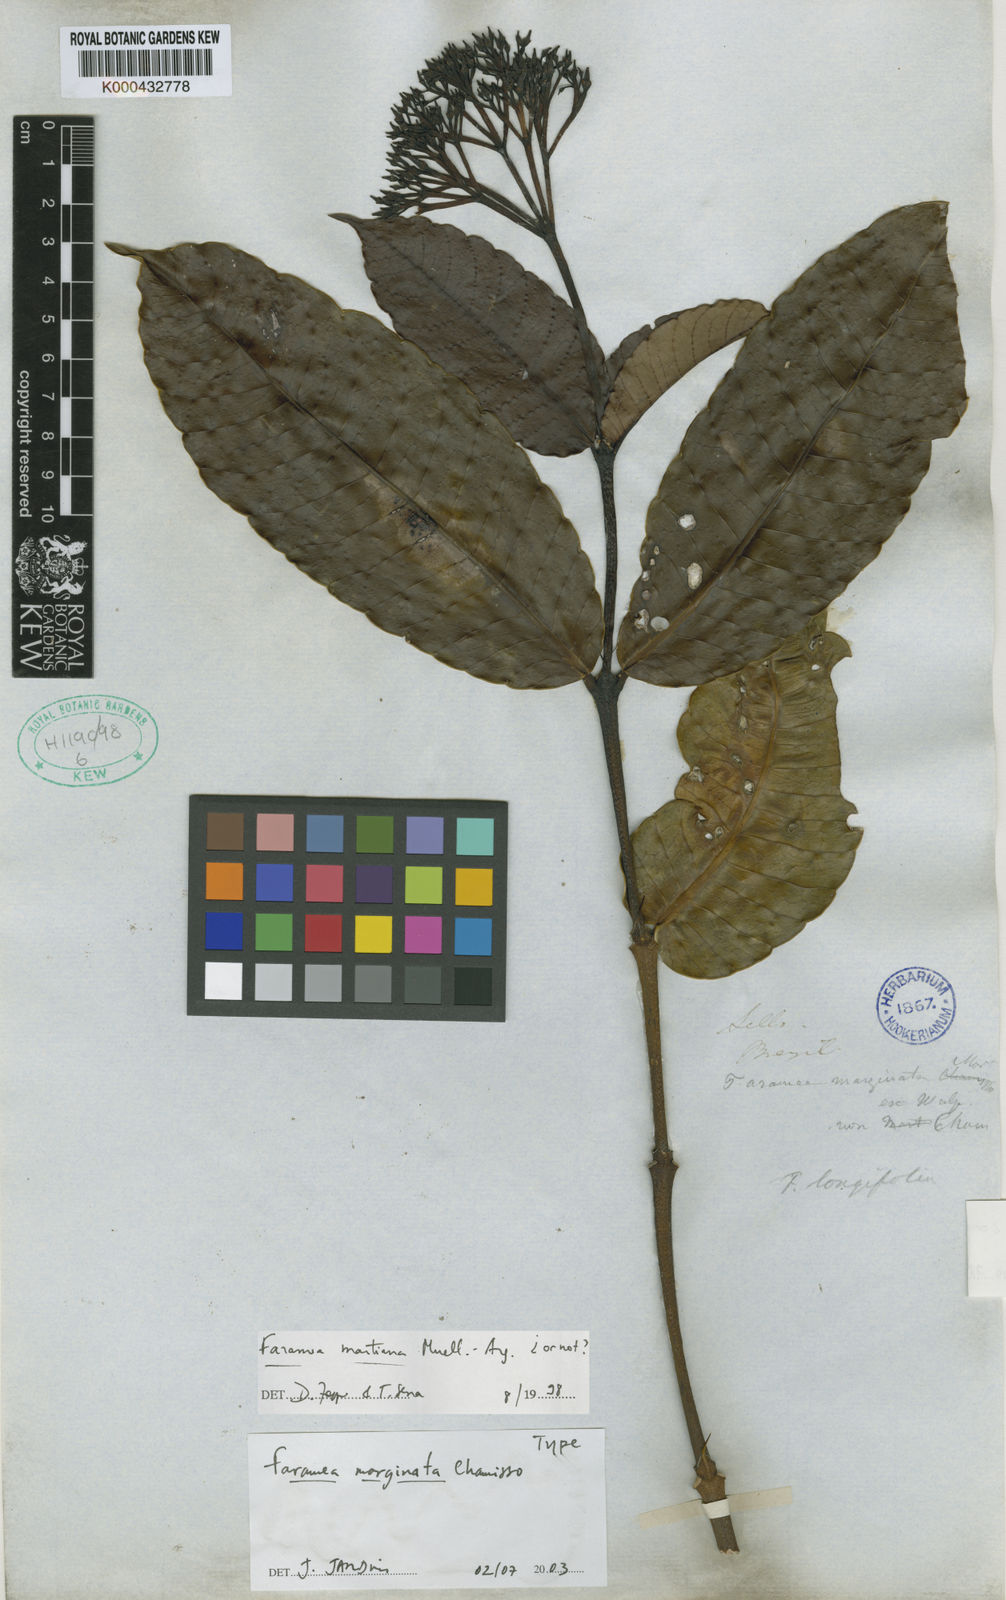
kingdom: Plantae
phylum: Tracheophyta
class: Magnoliopsida
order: Gentianales
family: Rubiaceae
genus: Faramea
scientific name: Faramea latifolia
